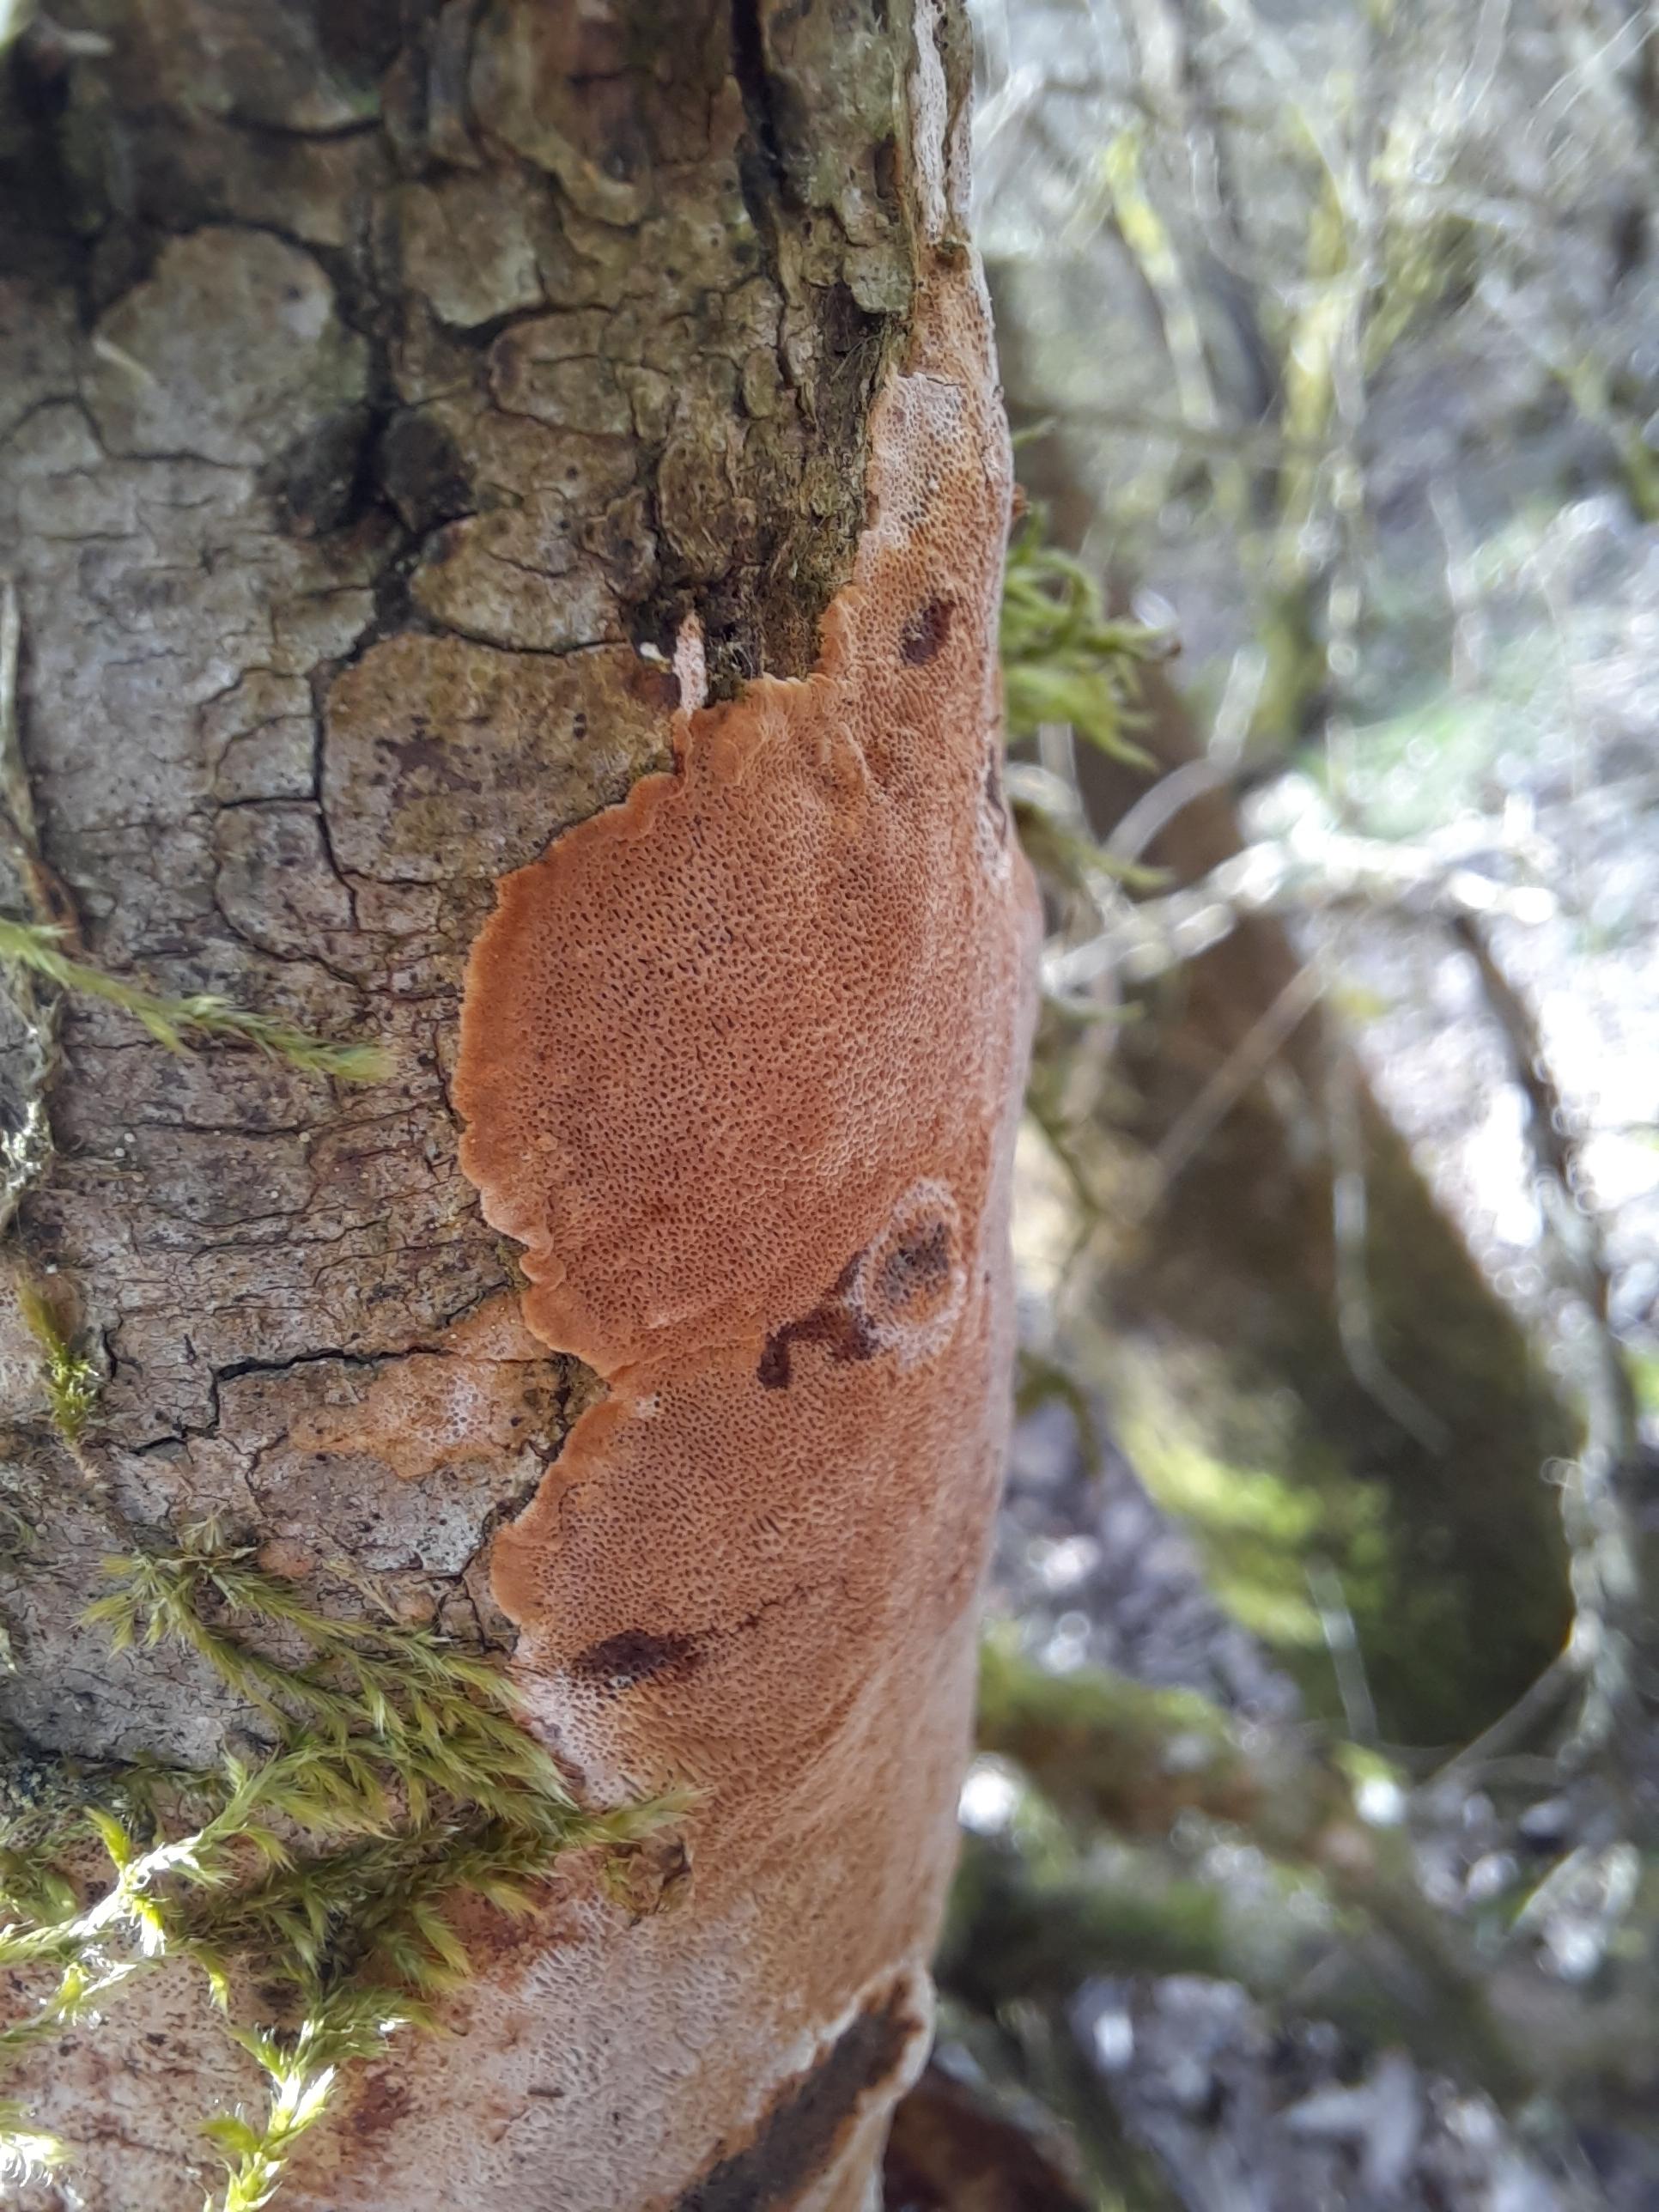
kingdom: Fungi
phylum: Basidiomycota
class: Agaricomycetes
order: Hymenochaetales
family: Hymenochaetaceae
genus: Fuscoporia
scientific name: Fuscoporia ferrea
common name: skorpe-ildporesvamp
